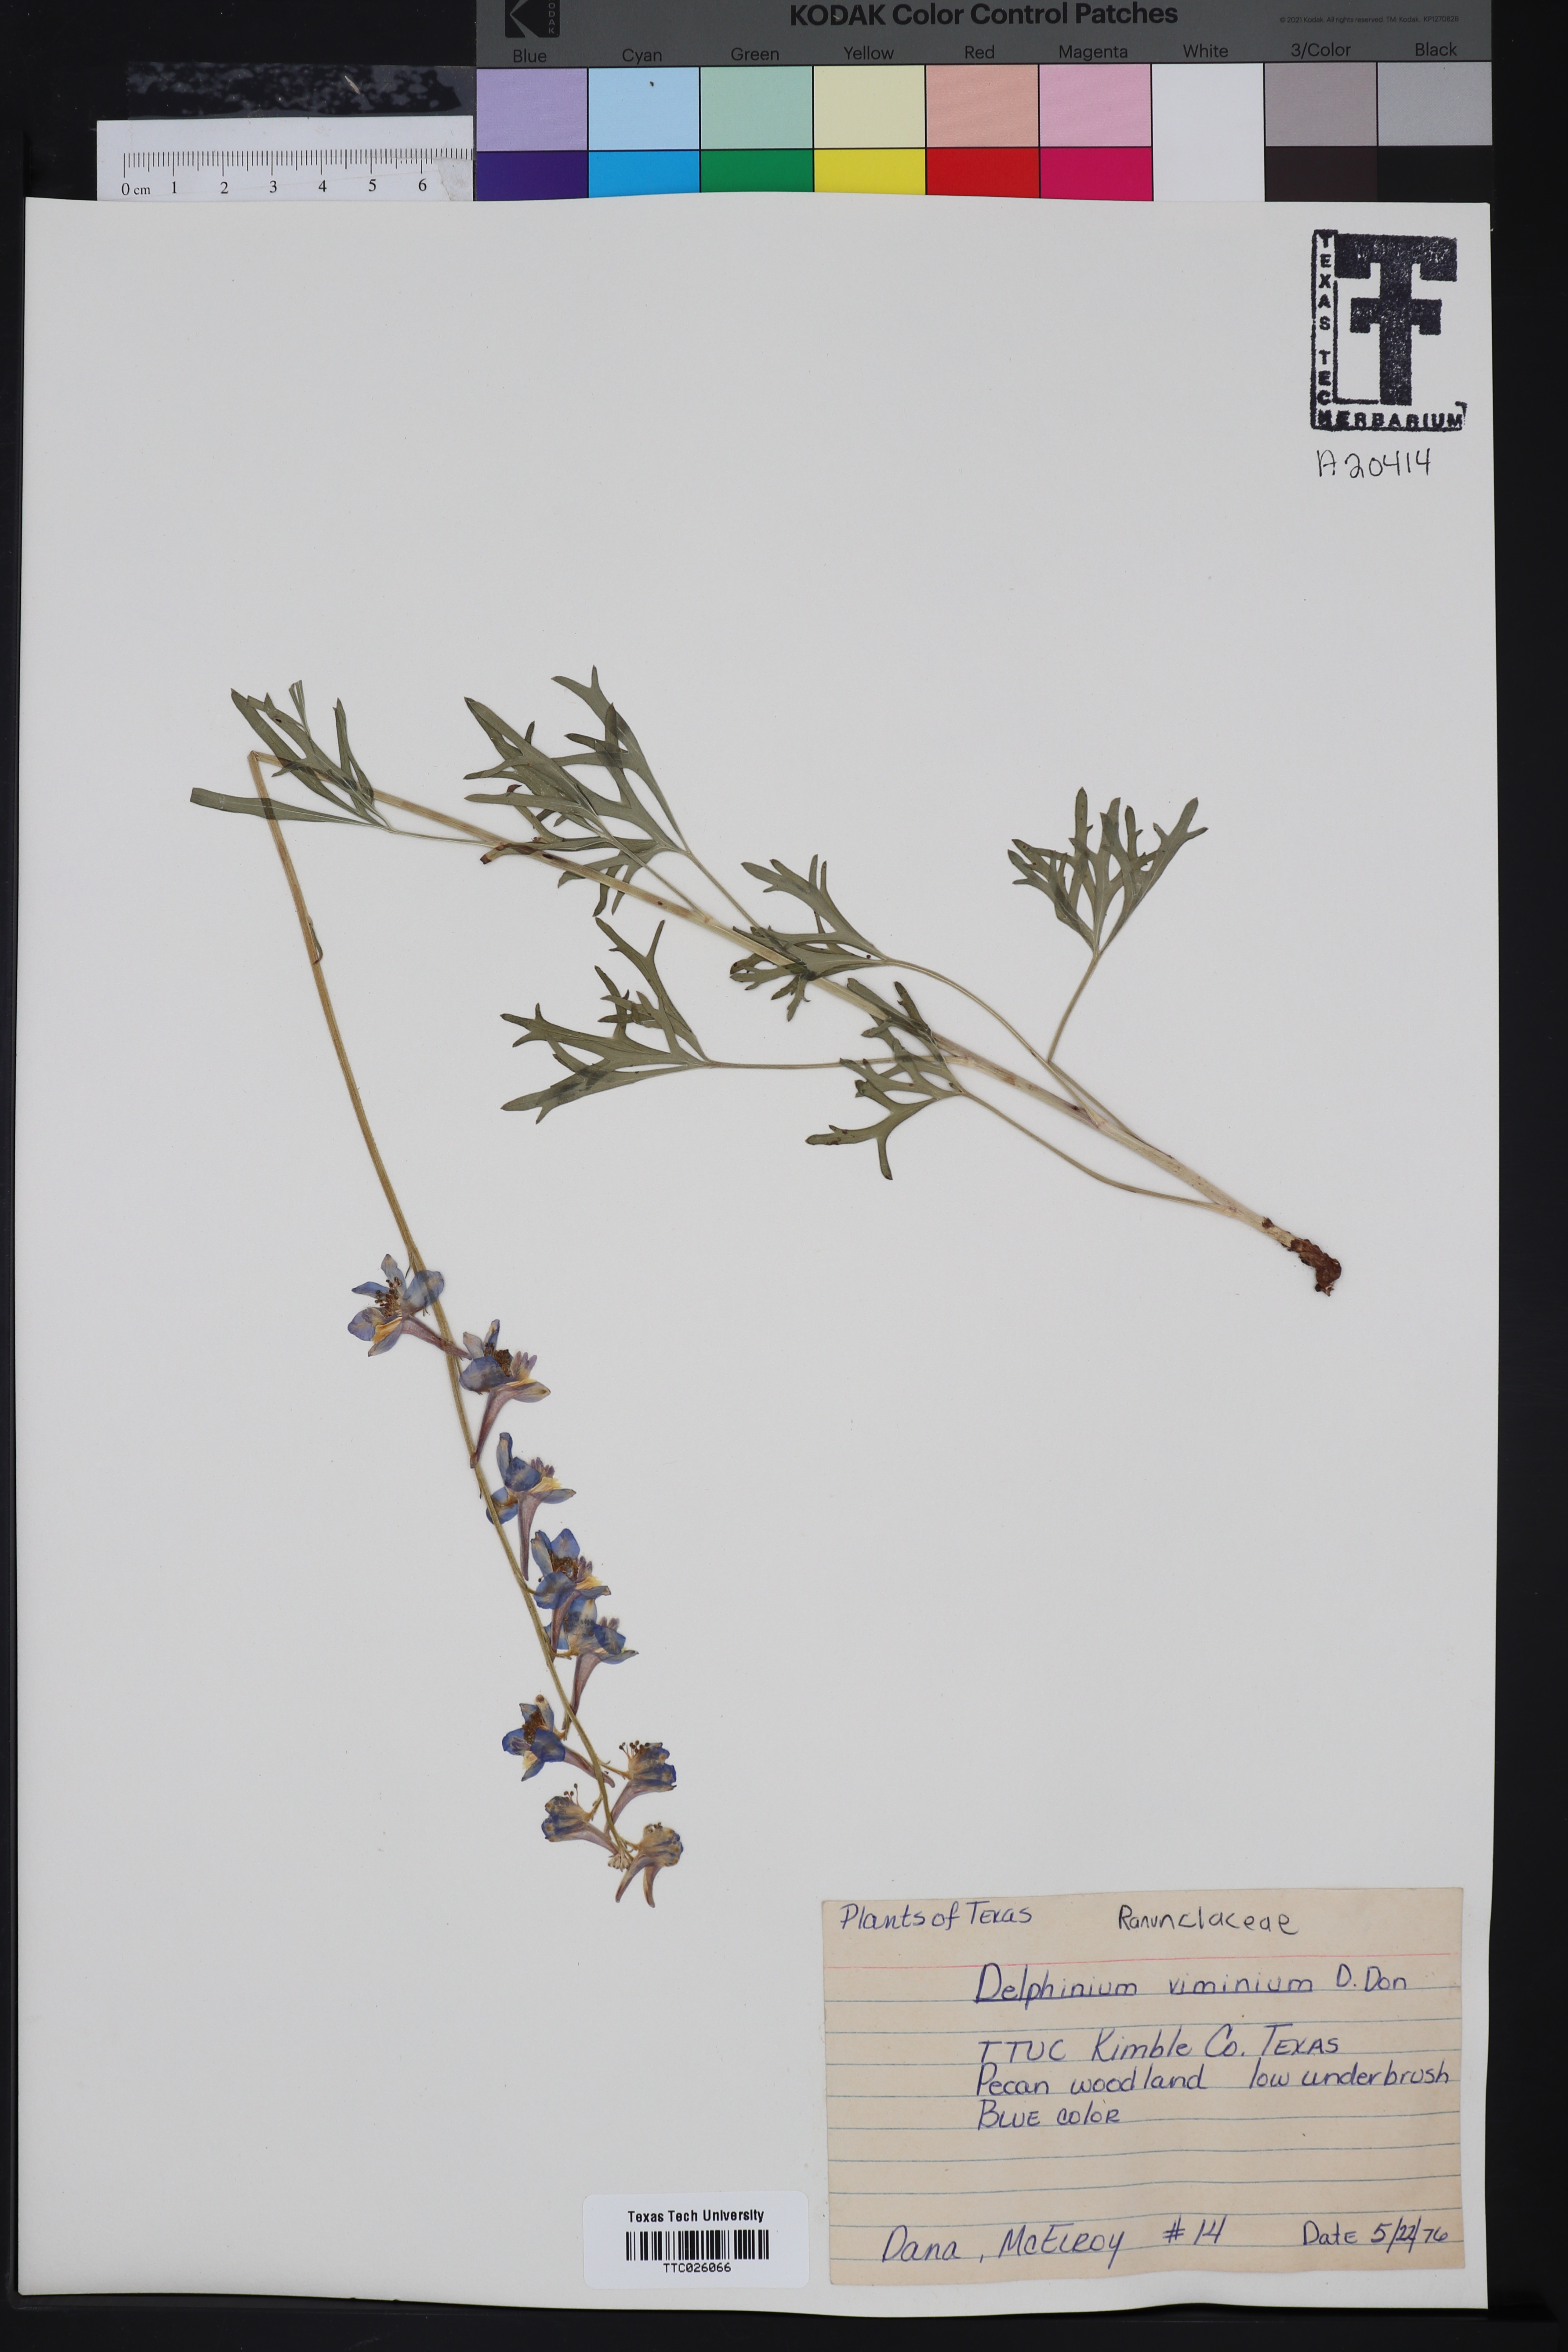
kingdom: Plantae
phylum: Tracheophyta
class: Magnoliopsida
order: Ranunculales
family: Ranunculaceae
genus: Delphinium
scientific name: Delphinium carolinianum
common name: Carolina larkspur
